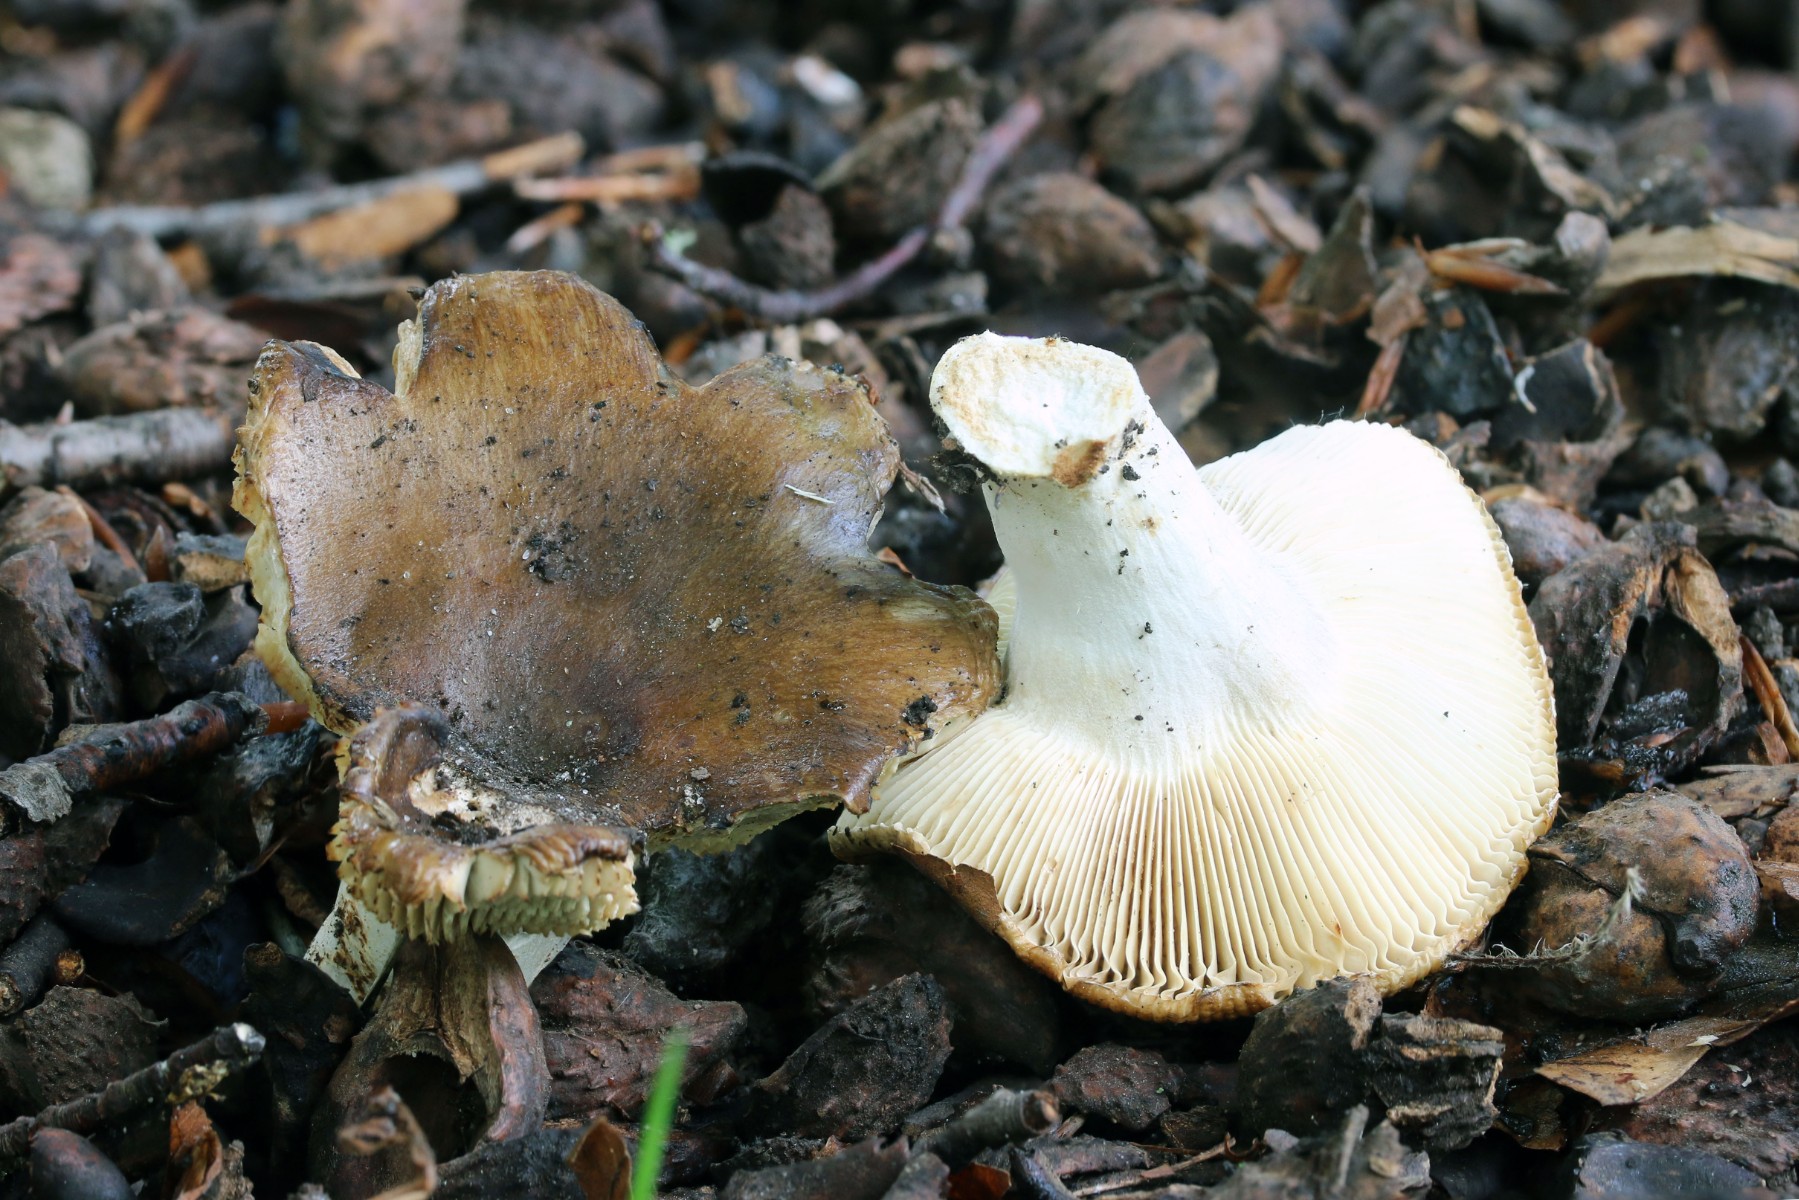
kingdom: Fungi
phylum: Basidiomycota
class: Agaricomycetes
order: Russulales
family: Russulaceae
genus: Russula
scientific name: Russula sororia
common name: brun kam-skørhat
